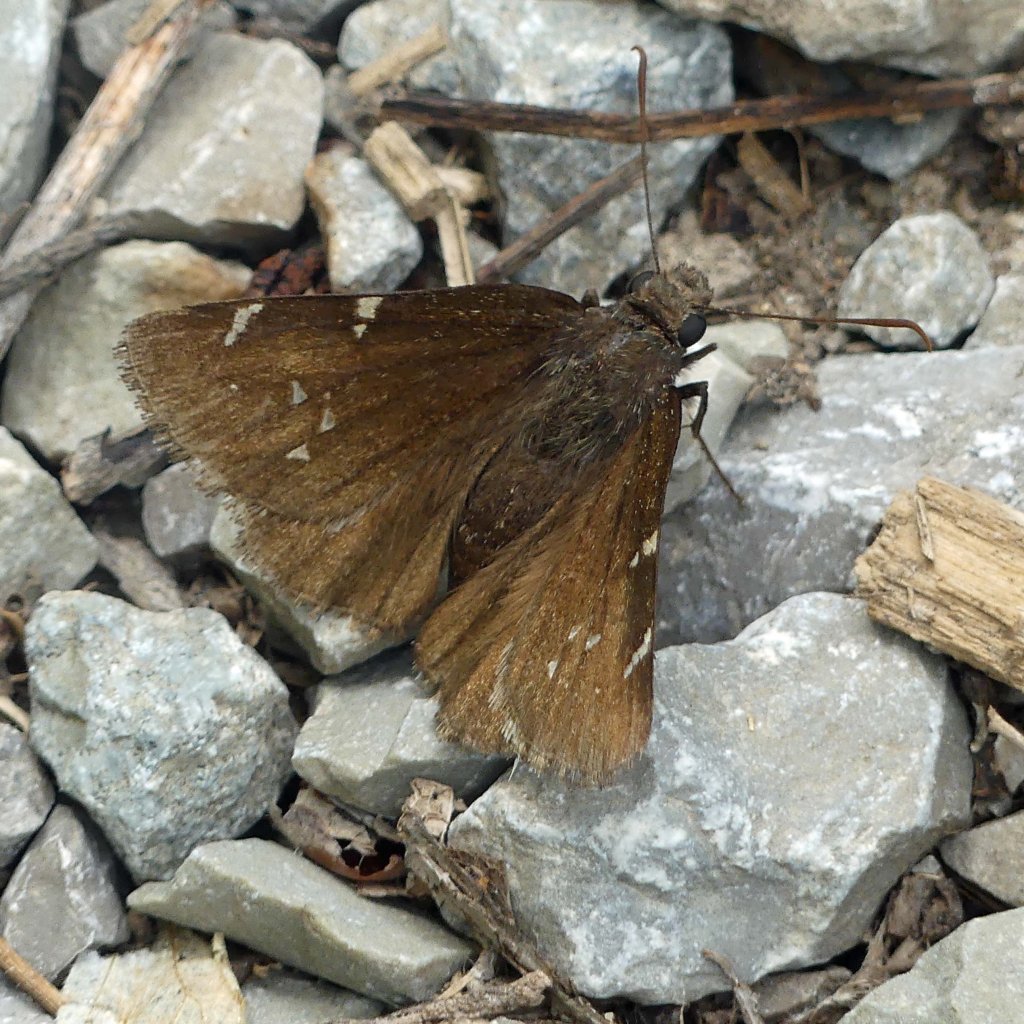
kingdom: Animalia
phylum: Arthropoda
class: Insecta
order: Lepidoptera
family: Hesperiidae
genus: Autochton
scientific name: Autochton
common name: Northern Cloudywing
